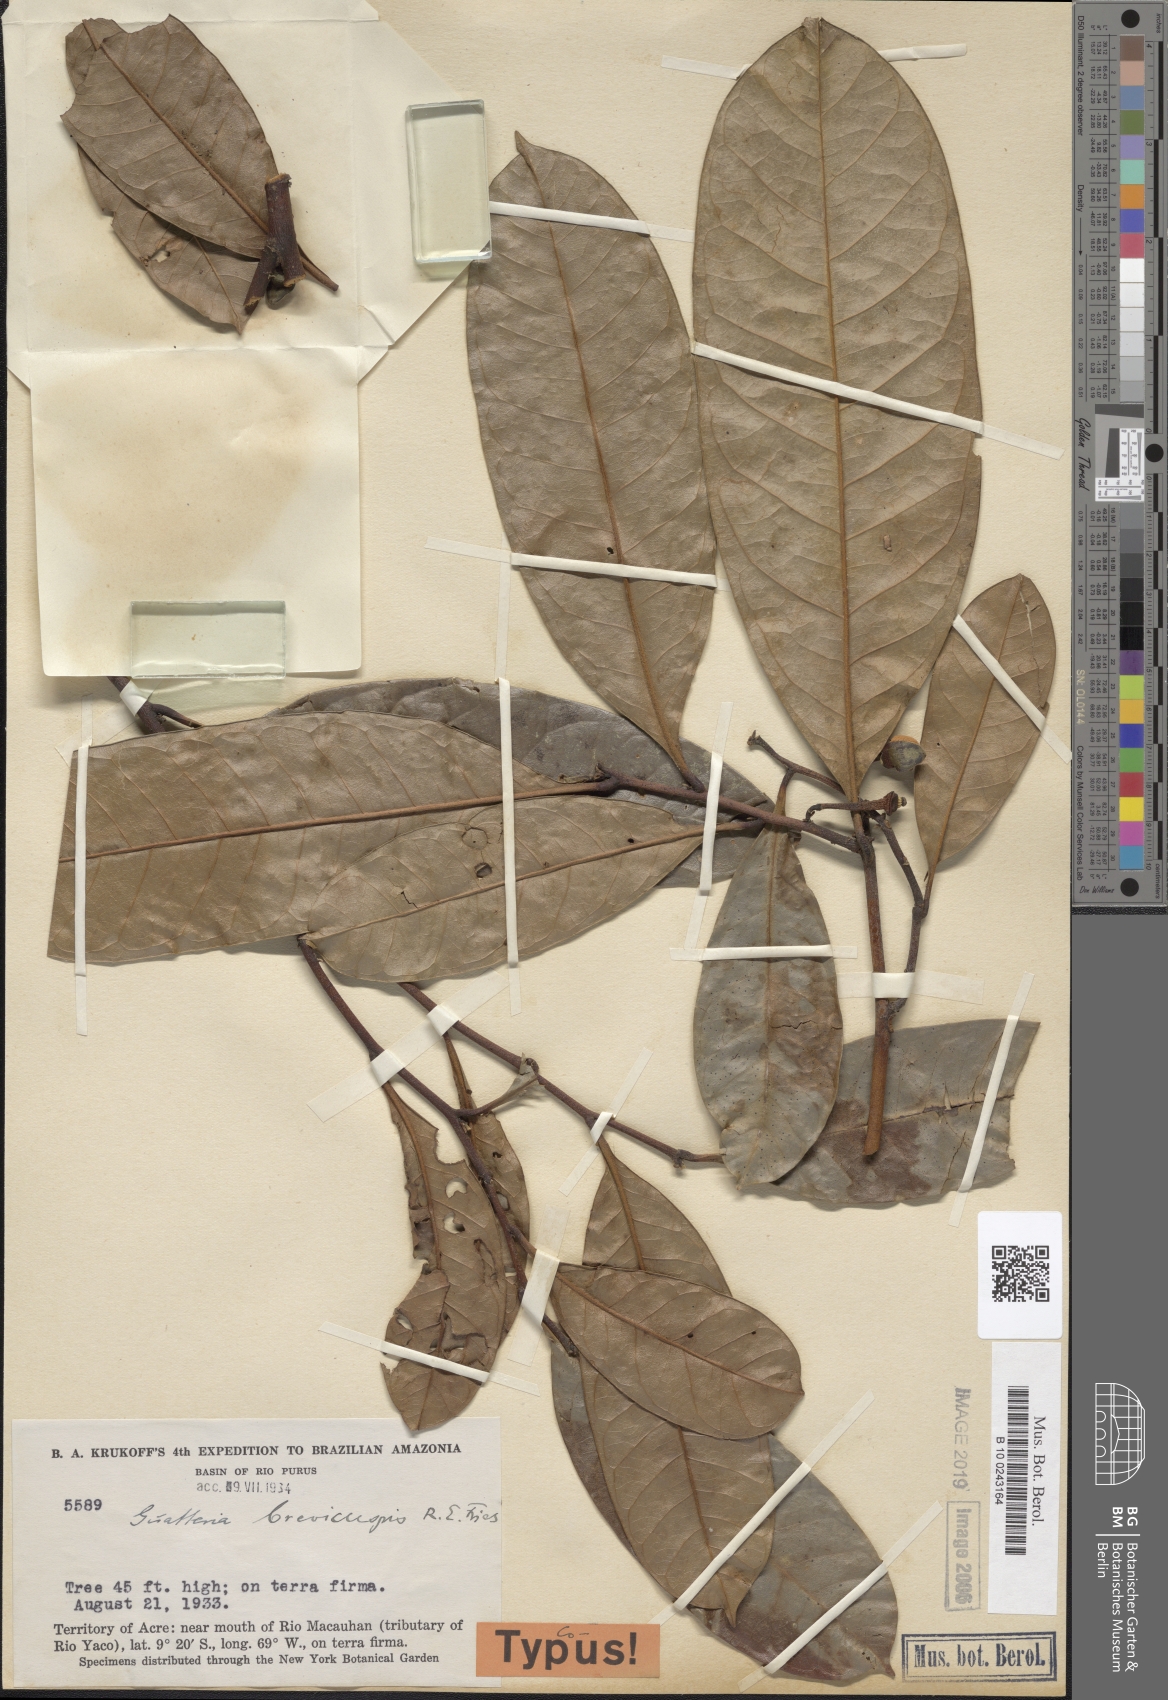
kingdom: Plantae
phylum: Tracheophyta
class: Magnoliopsida
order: Magnoliales
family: Annonaceae
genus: Guatteria
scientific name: Guatteria blepharophylla
